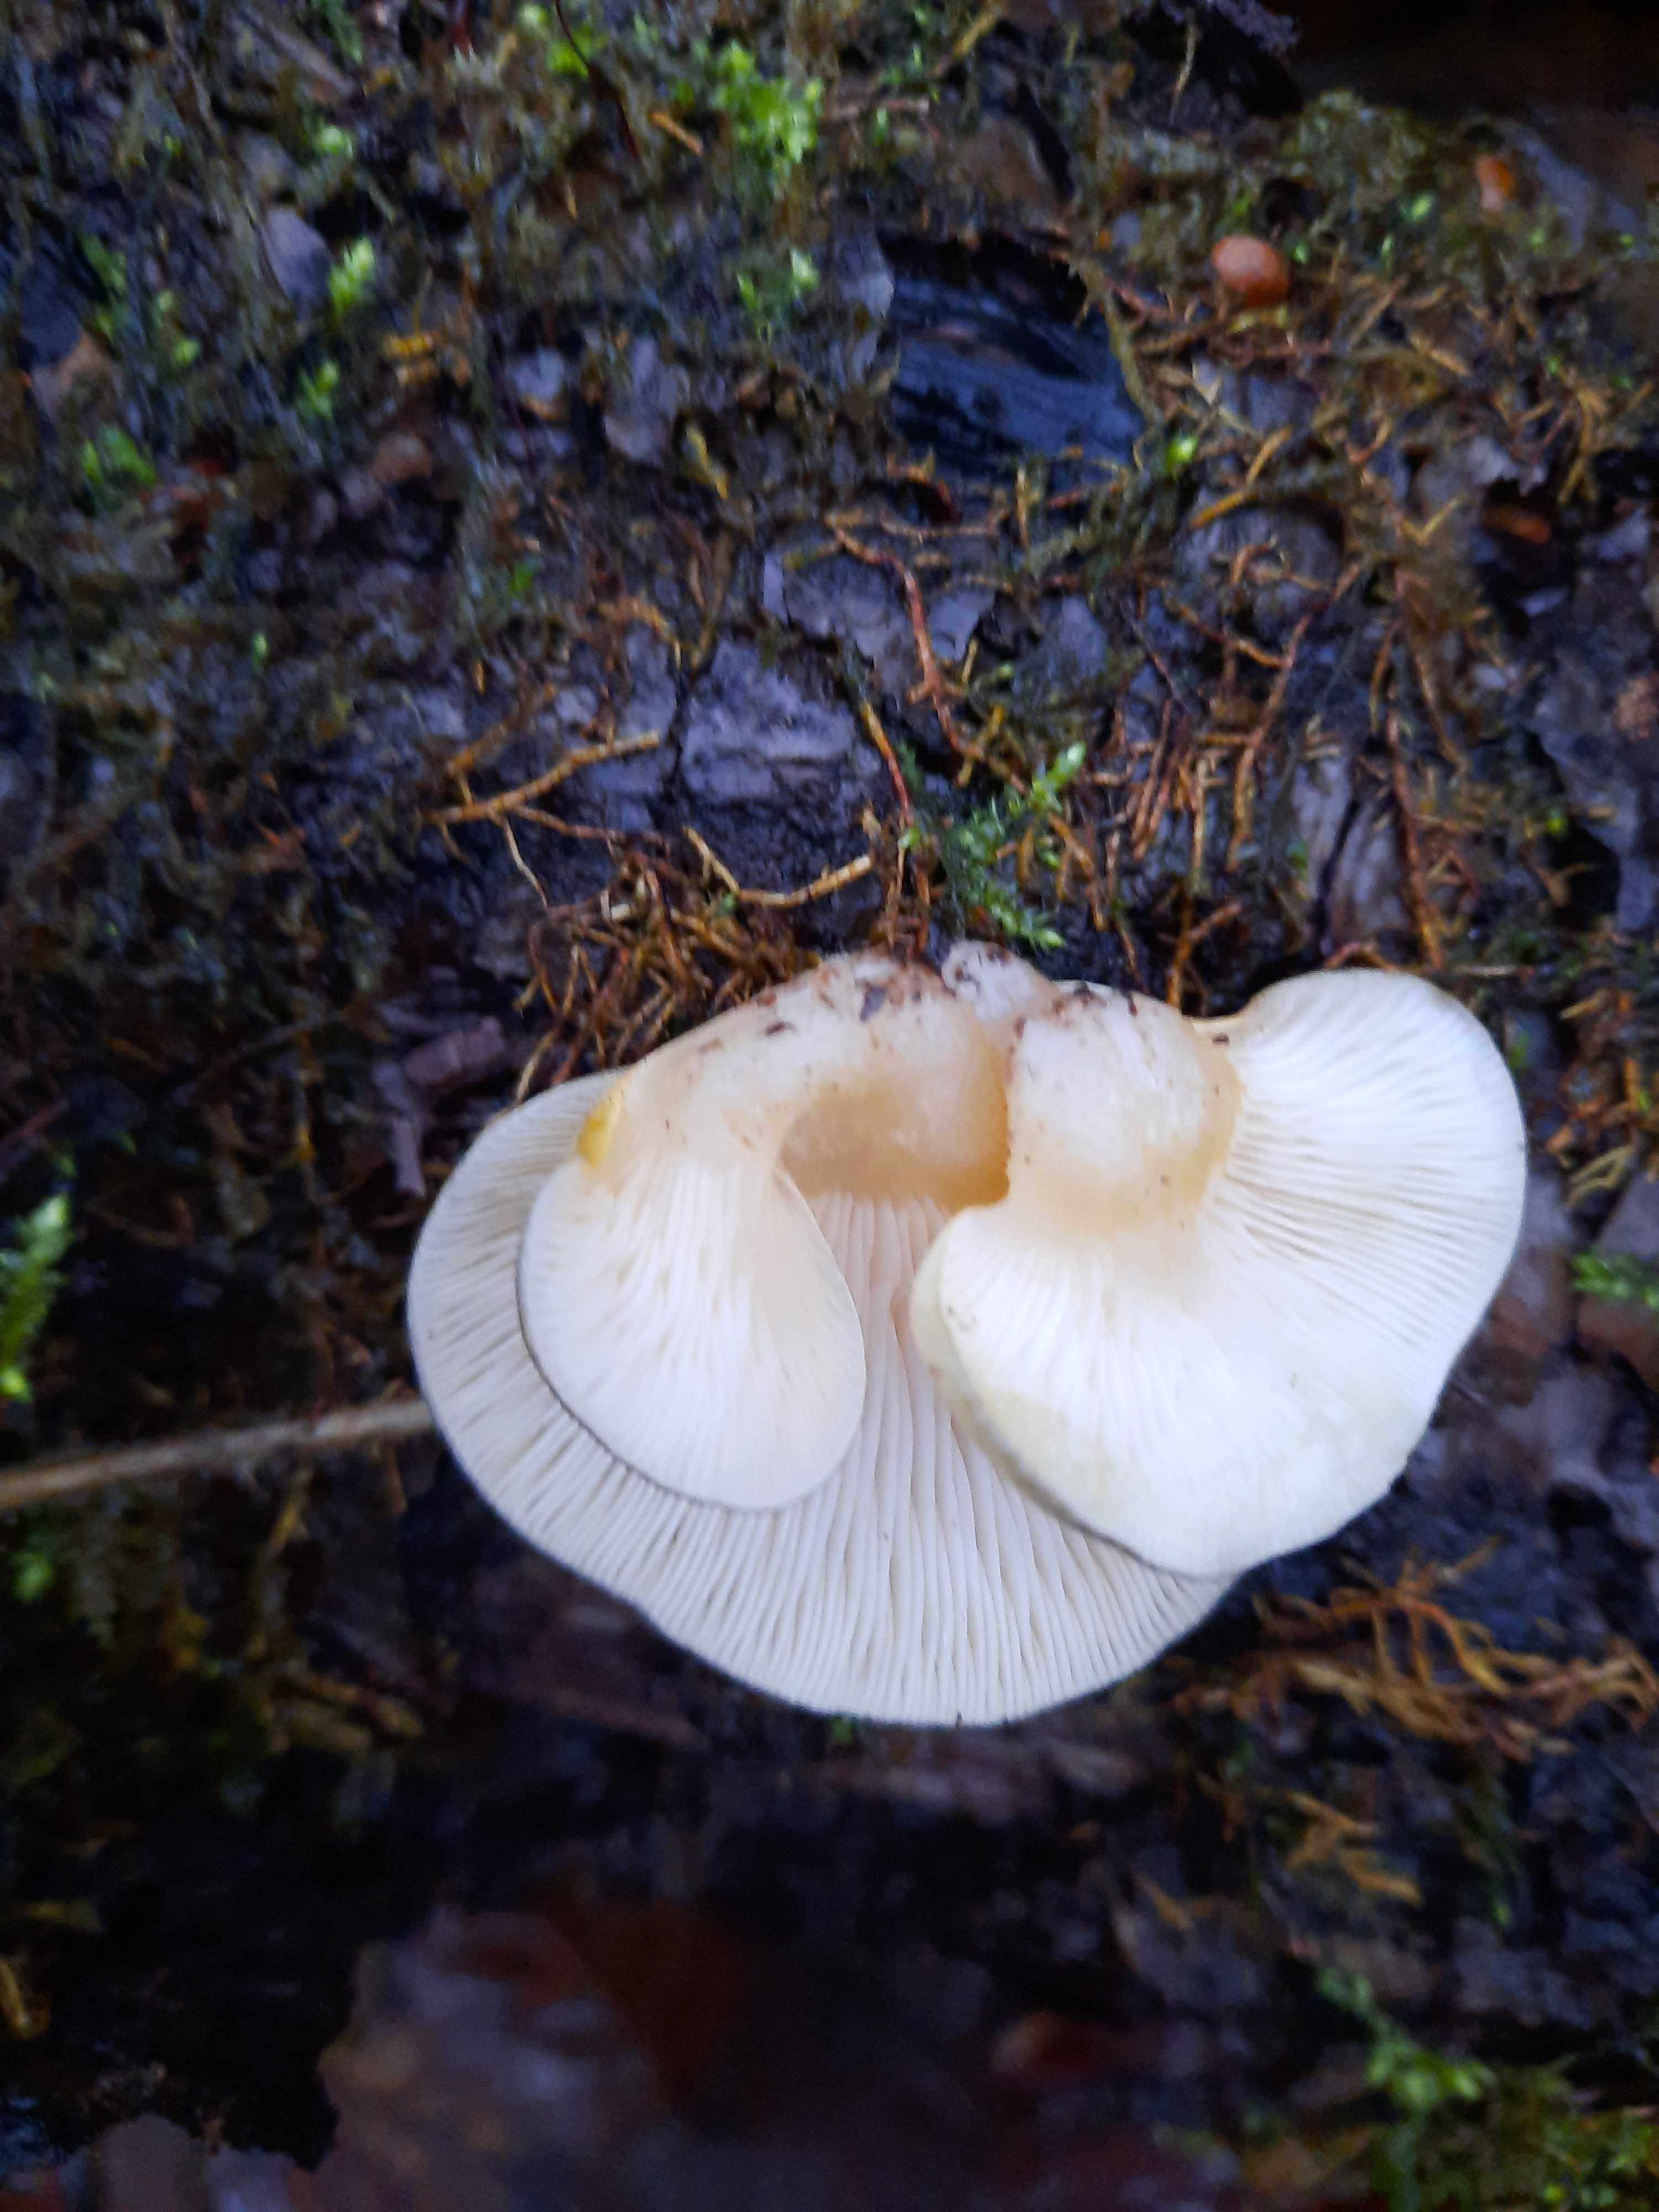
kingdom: Fungi
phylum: Basidiomycota
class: Agaricomycetes
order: Agaricales
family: Sarcomyxaceae
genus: Sarcomyxa
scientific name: Sarcomyxa serotina
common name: gummihat
